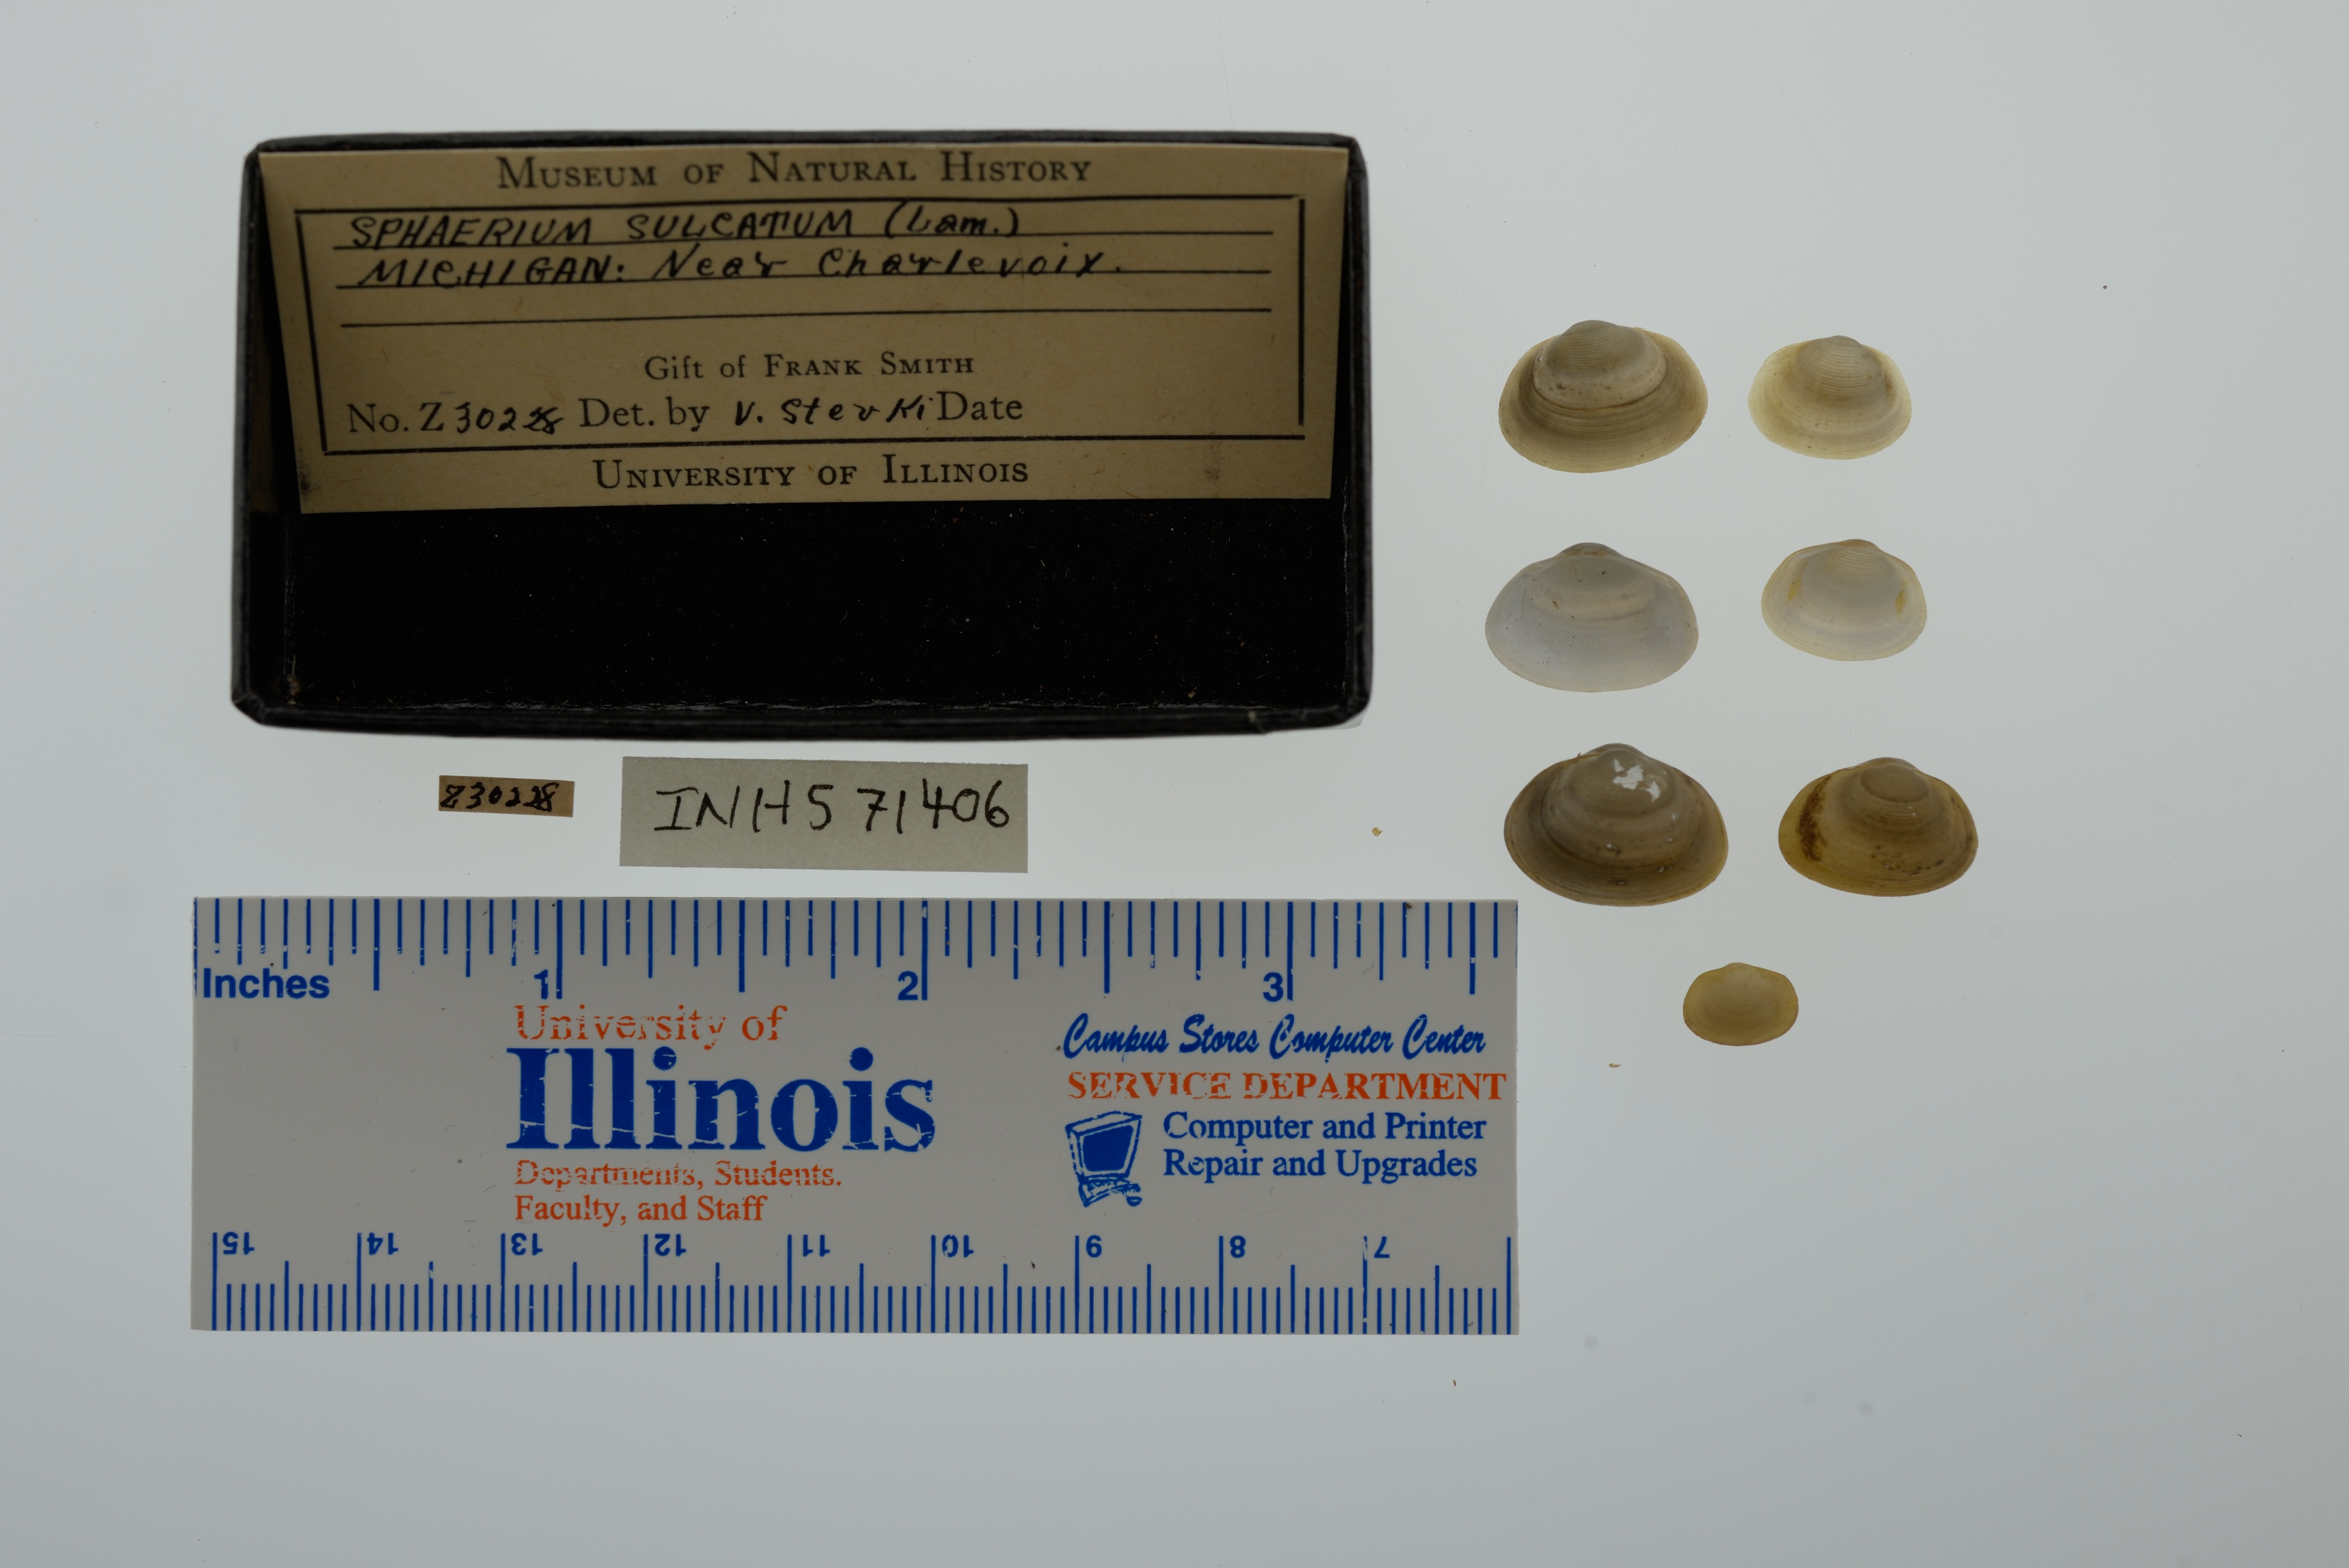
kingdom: Animalia
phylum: Mollusca
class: Bivalvia
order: Sphaeriida
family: Sphaeriidae
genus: Sphaerium
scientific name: Sphaerium simile
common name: Grooved fingernailclam
